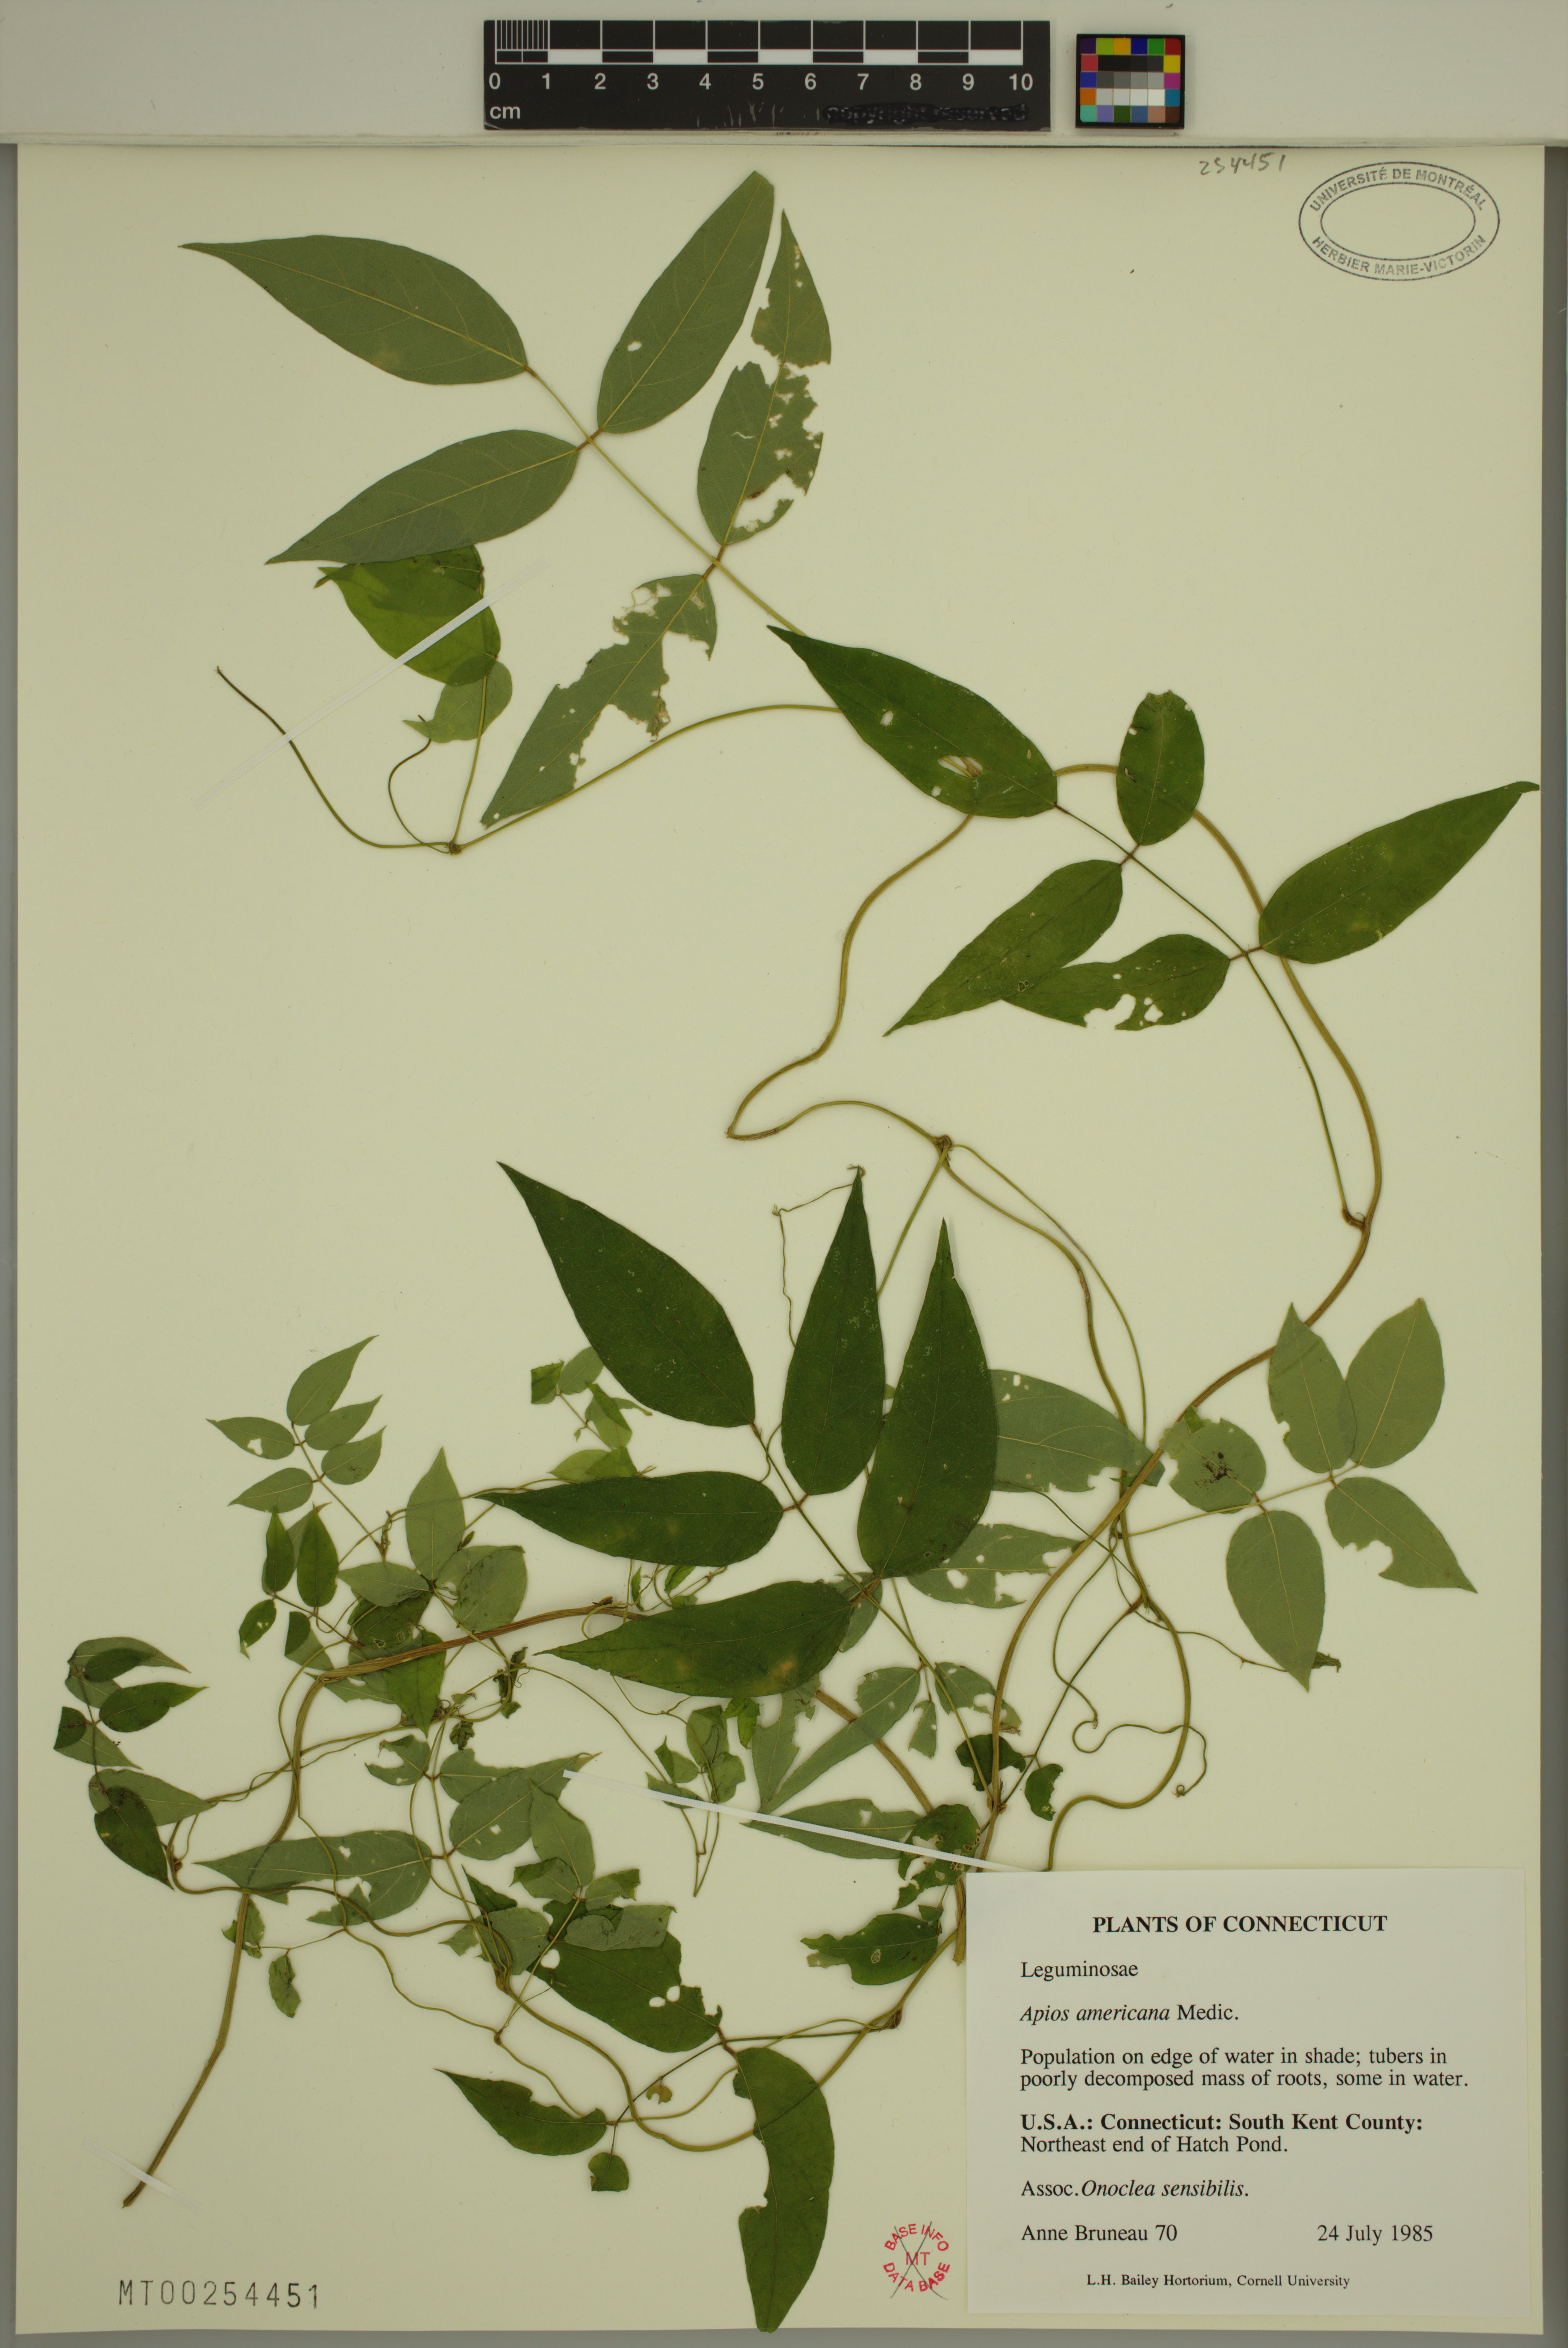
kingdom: Plantae
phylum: Tracheophyta
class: Magnoliopsida
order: Fabales
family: Fabaceae
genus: Apios
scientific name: Apios americana
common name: American potato-bean
